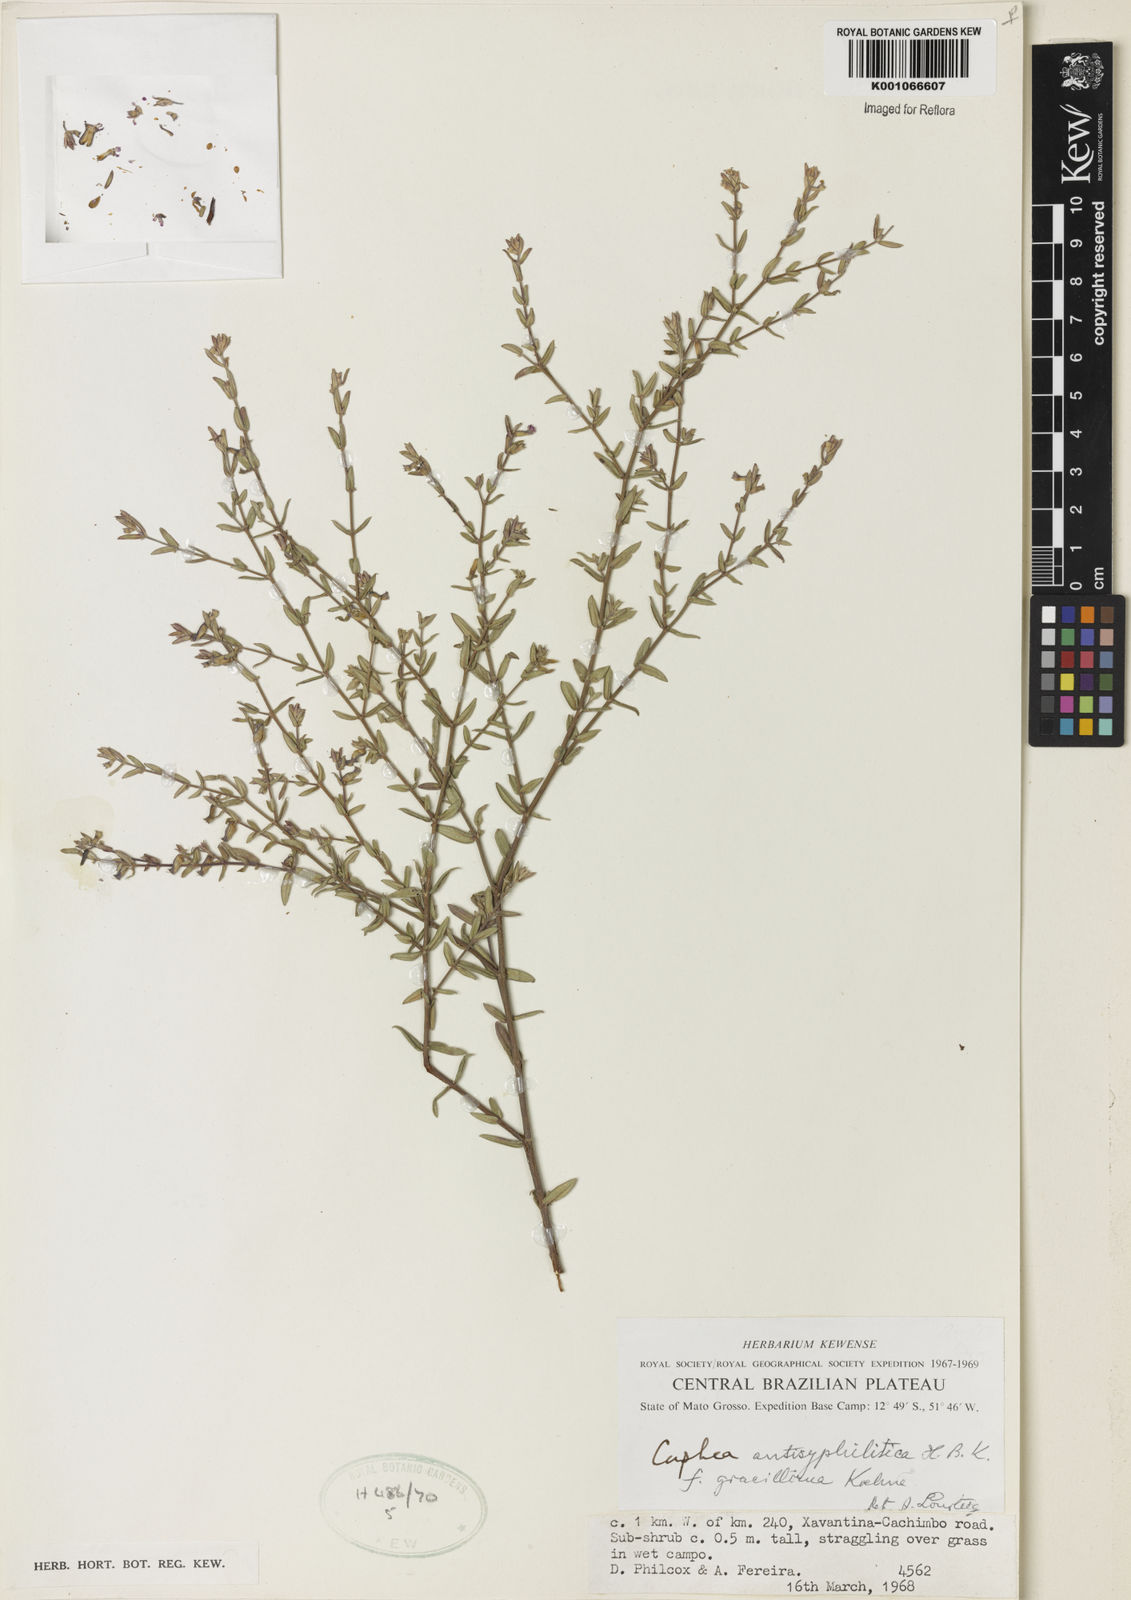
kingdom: Plantae
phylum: Tracheophyta
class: Magnoliopsida
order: Myrtales
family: Lythraceae
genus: Cuphea
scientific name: Cuphea antisyphilitica
